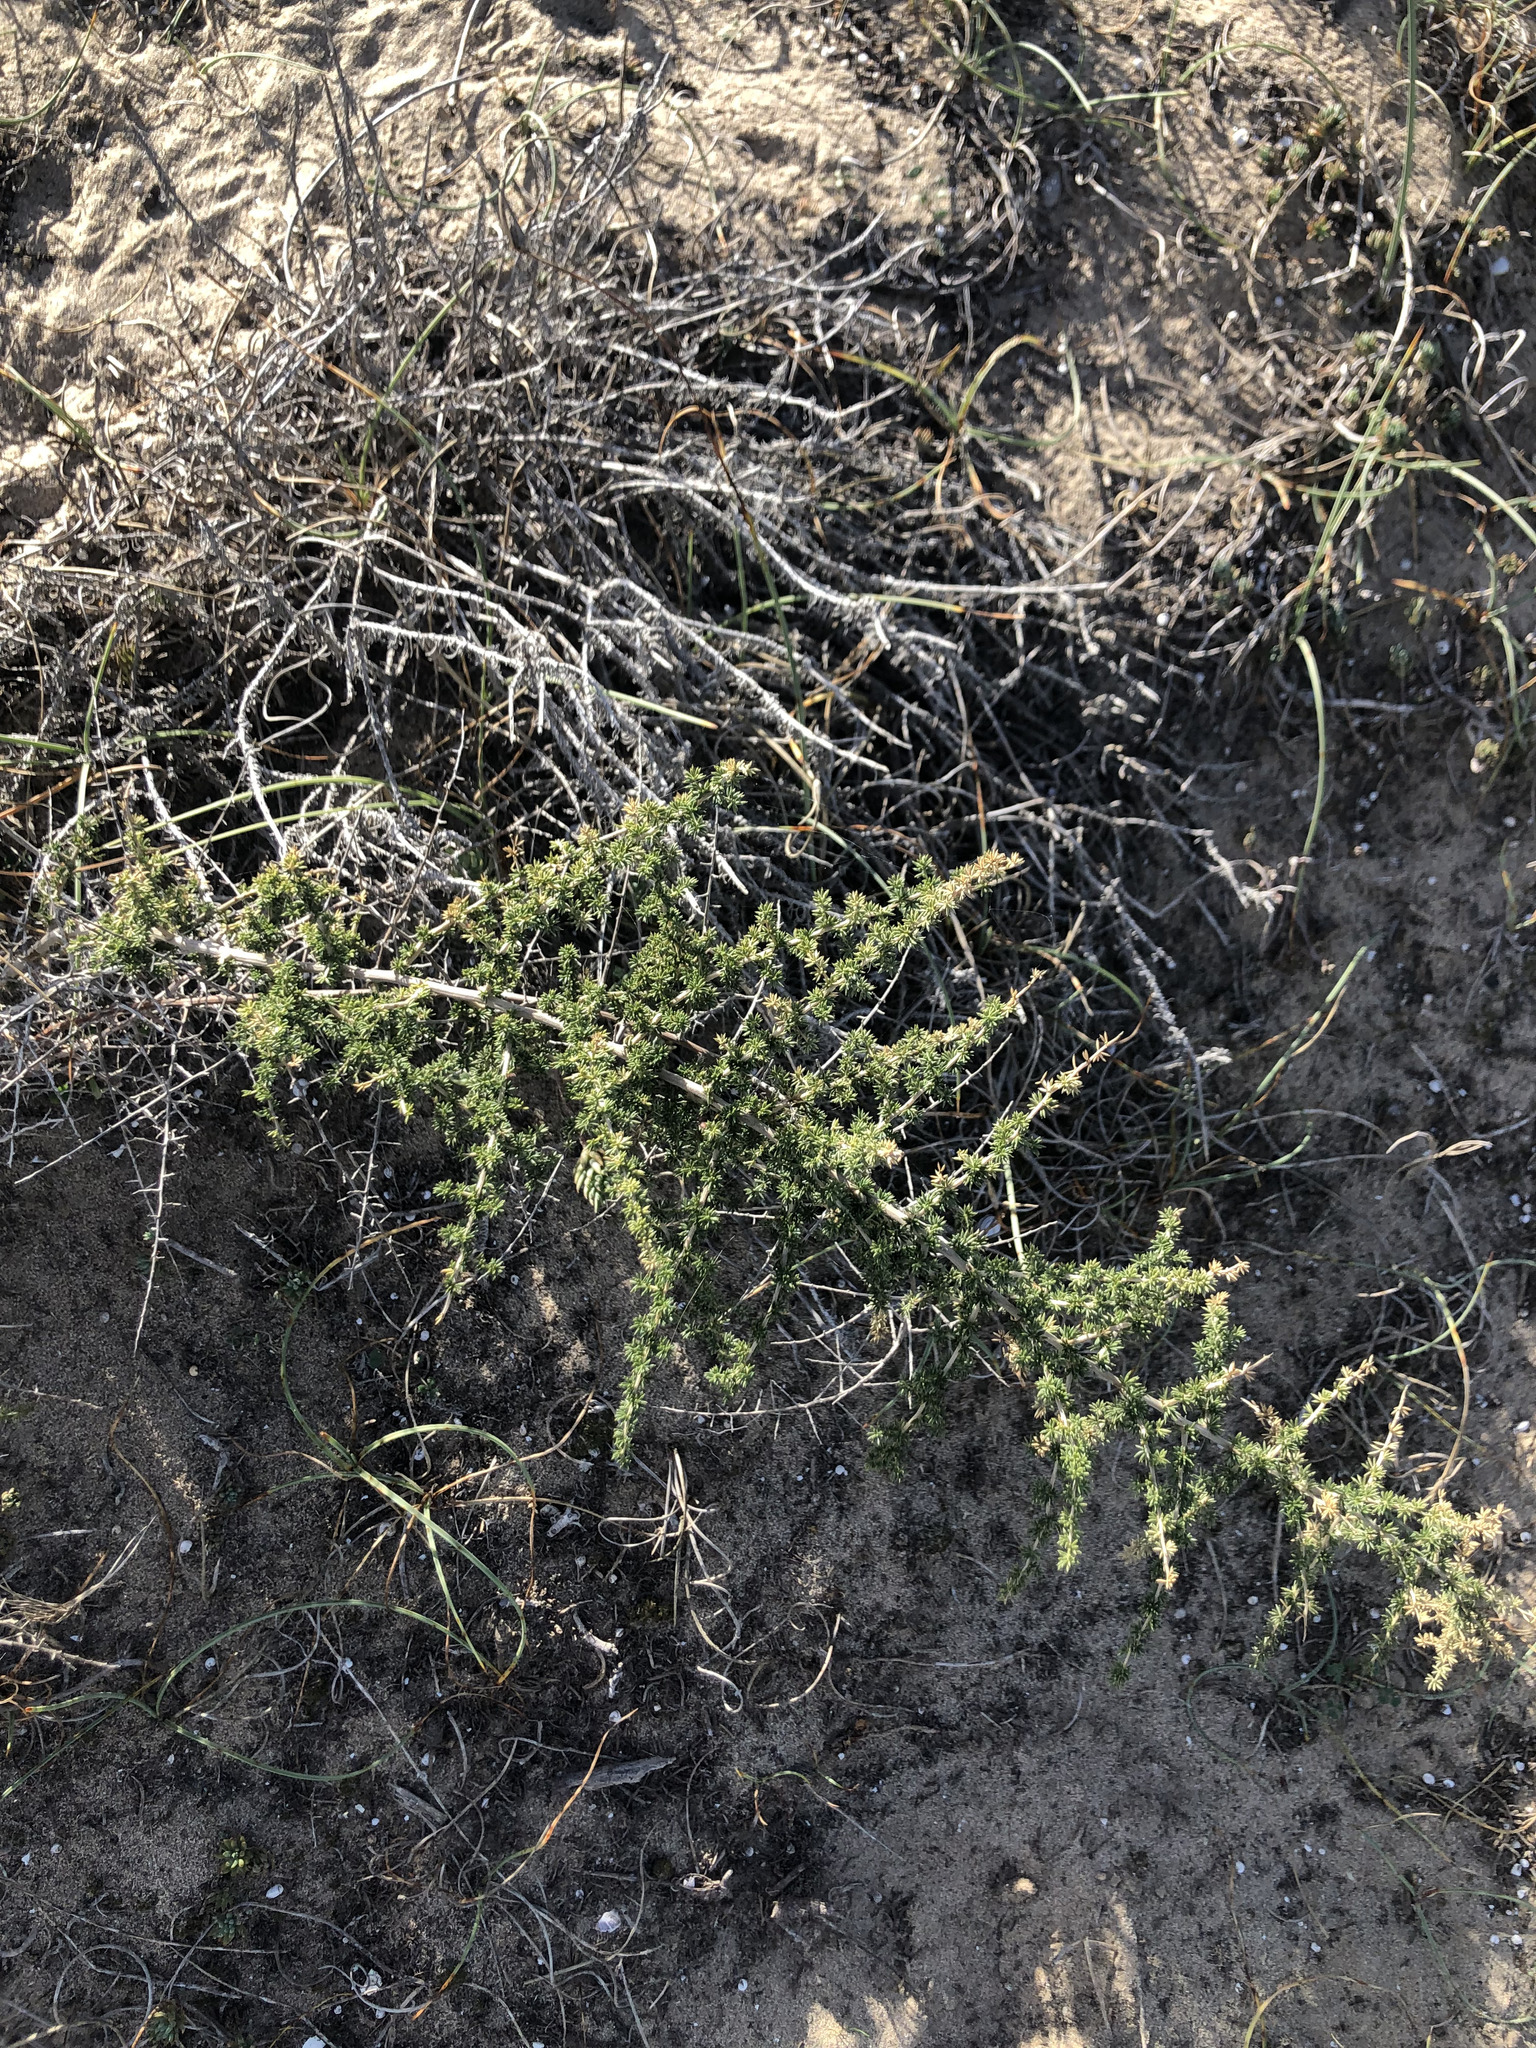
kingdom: Plantae
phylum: Tracheophyta
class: Liliopsida
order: Asparagales
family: Asparagaceae
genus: Asparagus
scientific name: Asparagus acutifolius
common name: Wild asparagus
